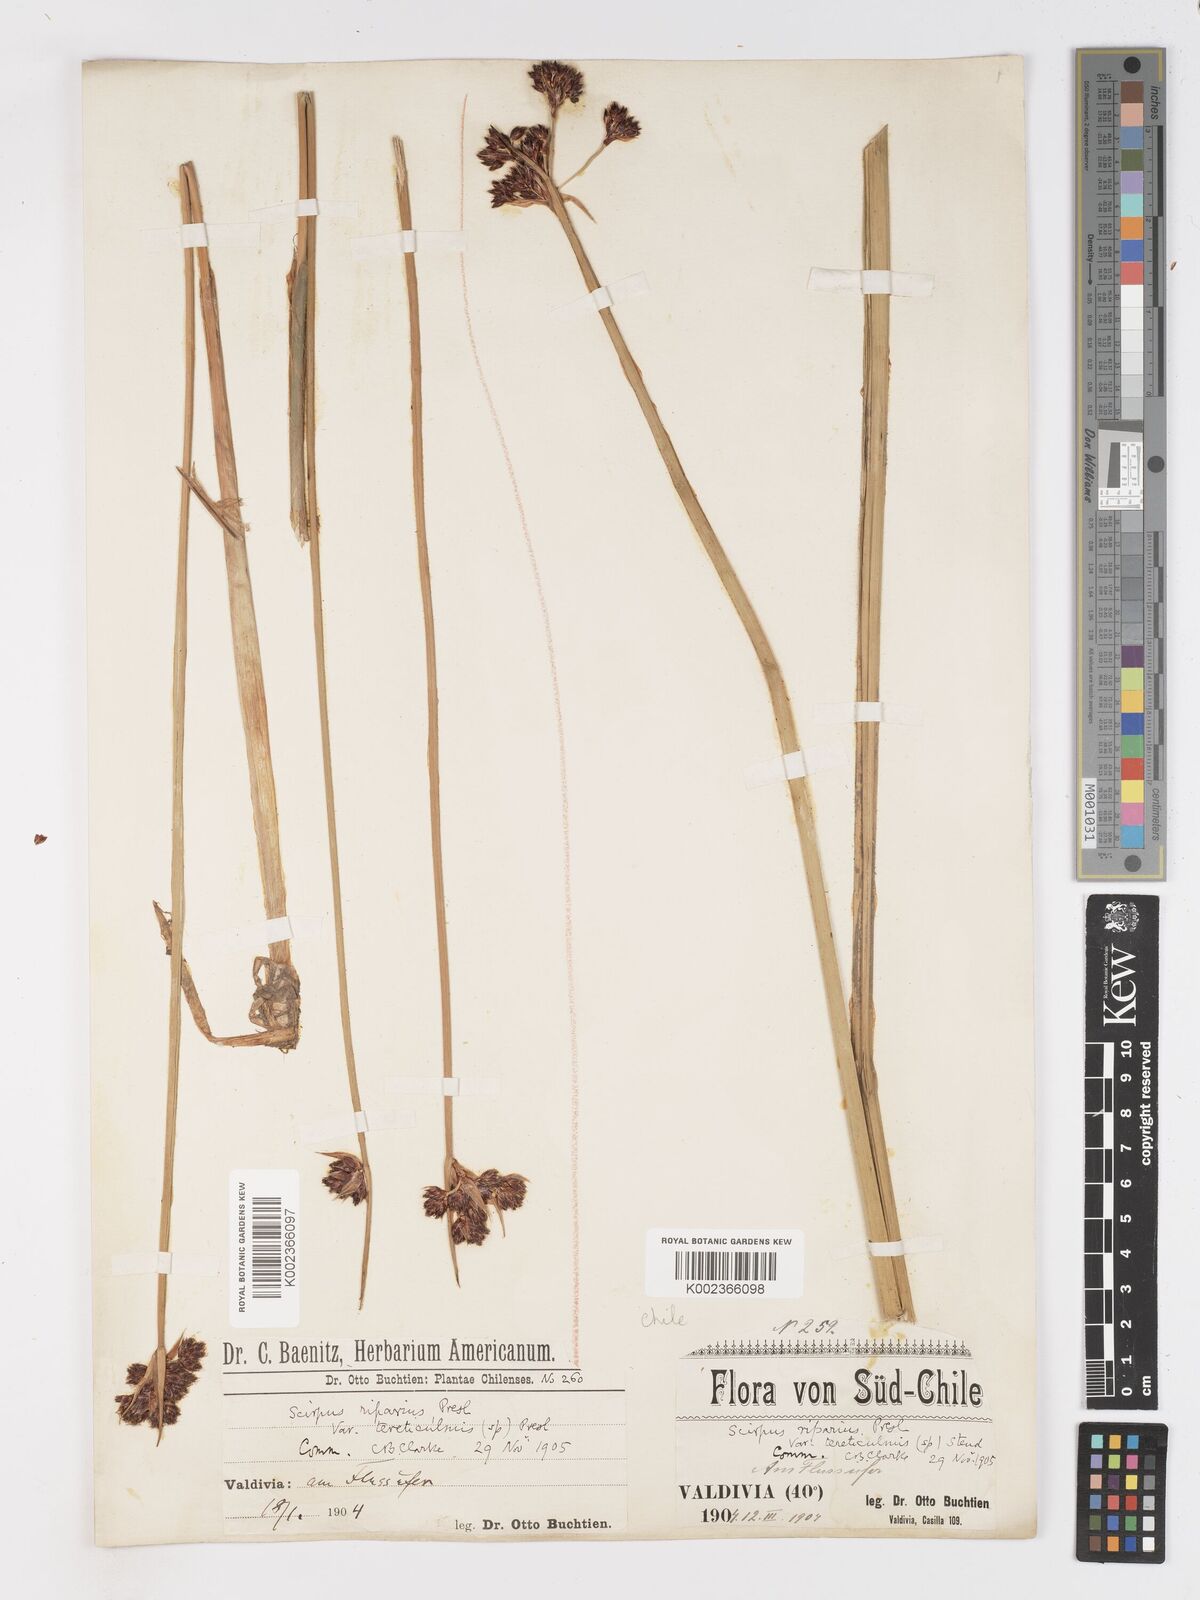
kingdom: Plantae
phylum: Tracheophyta
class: Liliopsida
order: Poales
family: Cyperaceae
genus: Schoenoplectus
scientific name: Schoenoplectus californicus
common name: California bulrush
